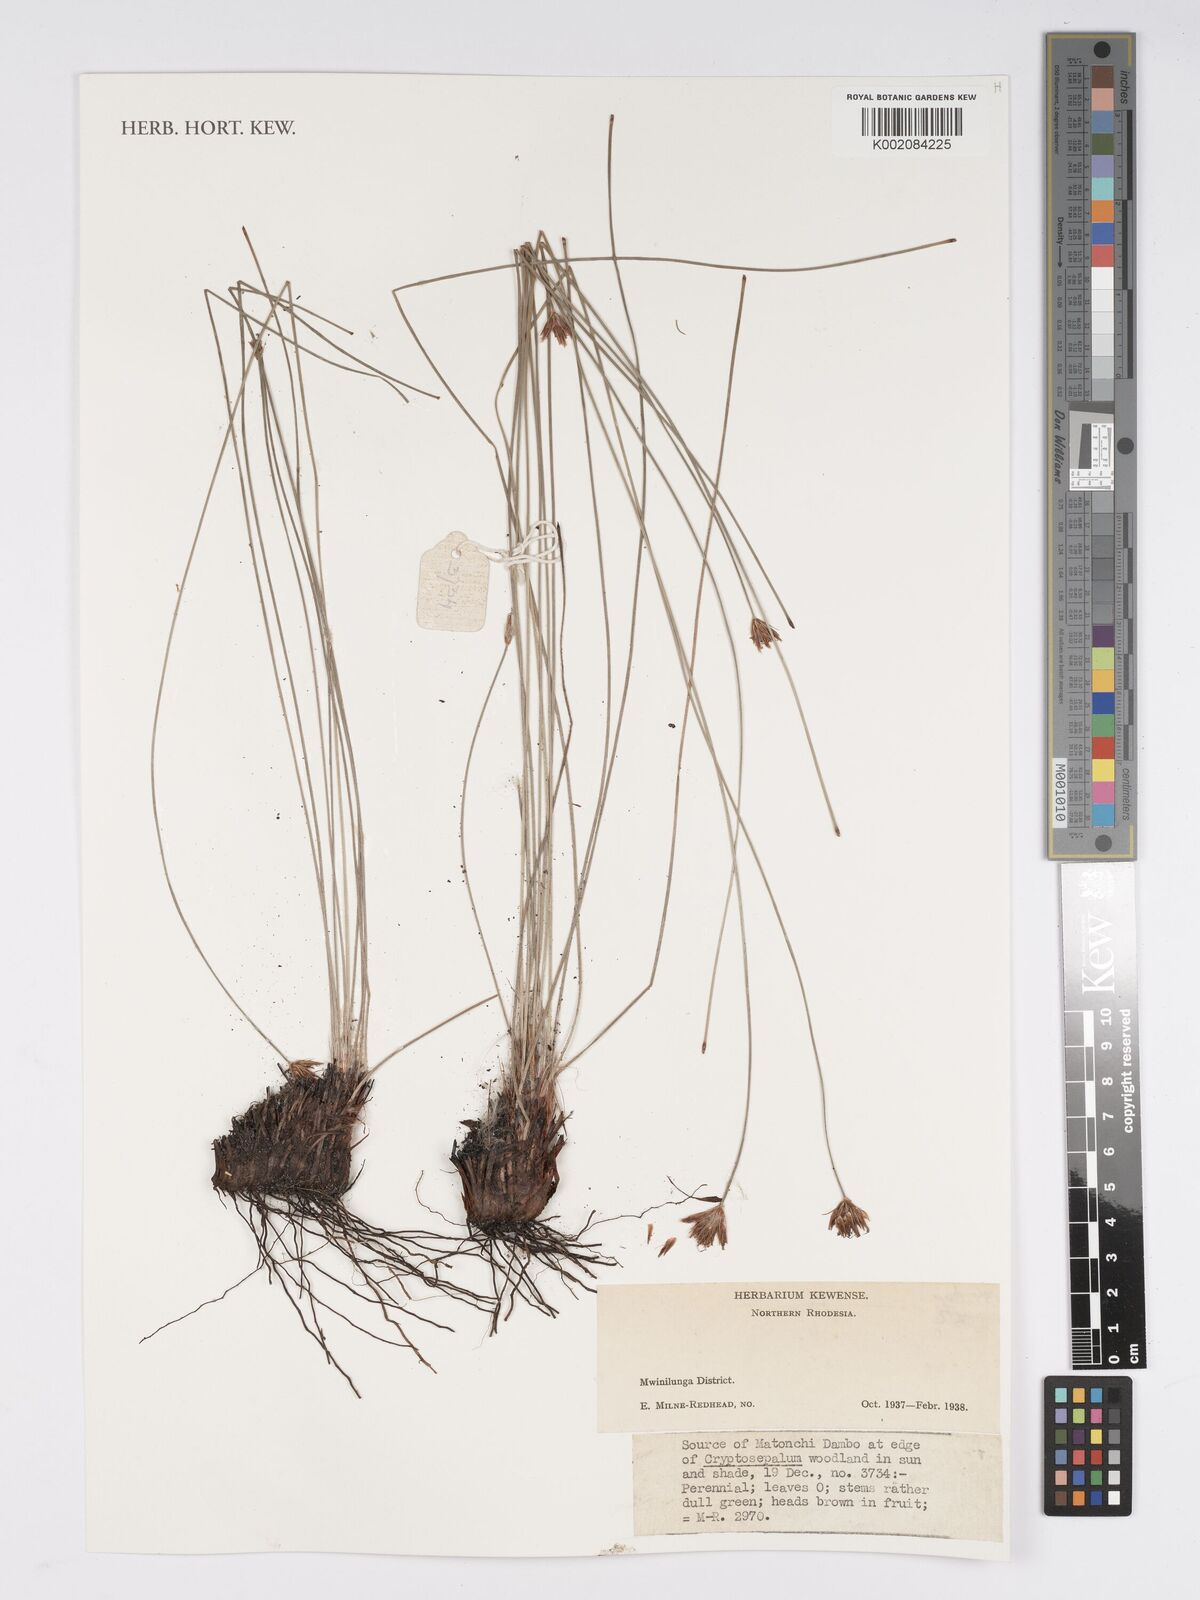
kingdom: Plantae
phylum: Tracheophyta
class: Liliopsida
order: Poales
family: Cyperaceae
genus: Bulbostylis
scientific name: Bulbostylis
